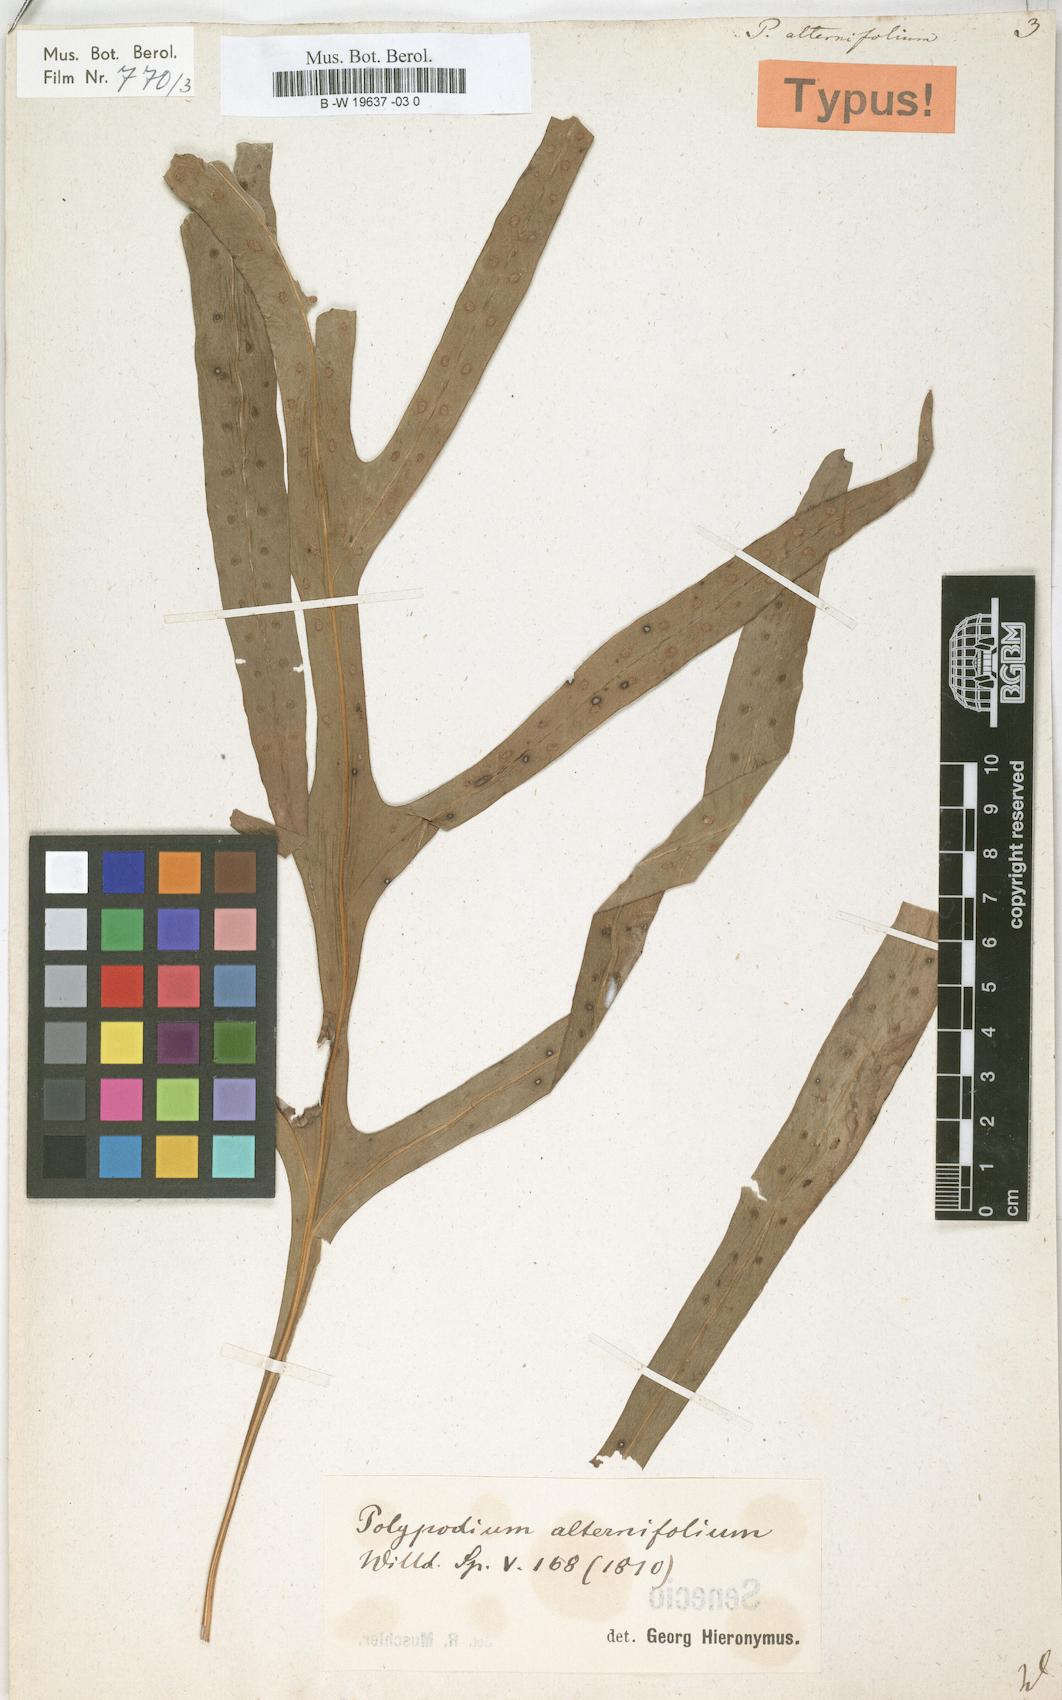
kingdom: Plantae
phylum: Tracheophyta
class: Polypodiopsida
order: Polypodiales
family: Polypodiaceae
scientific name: Polypodiaceae
